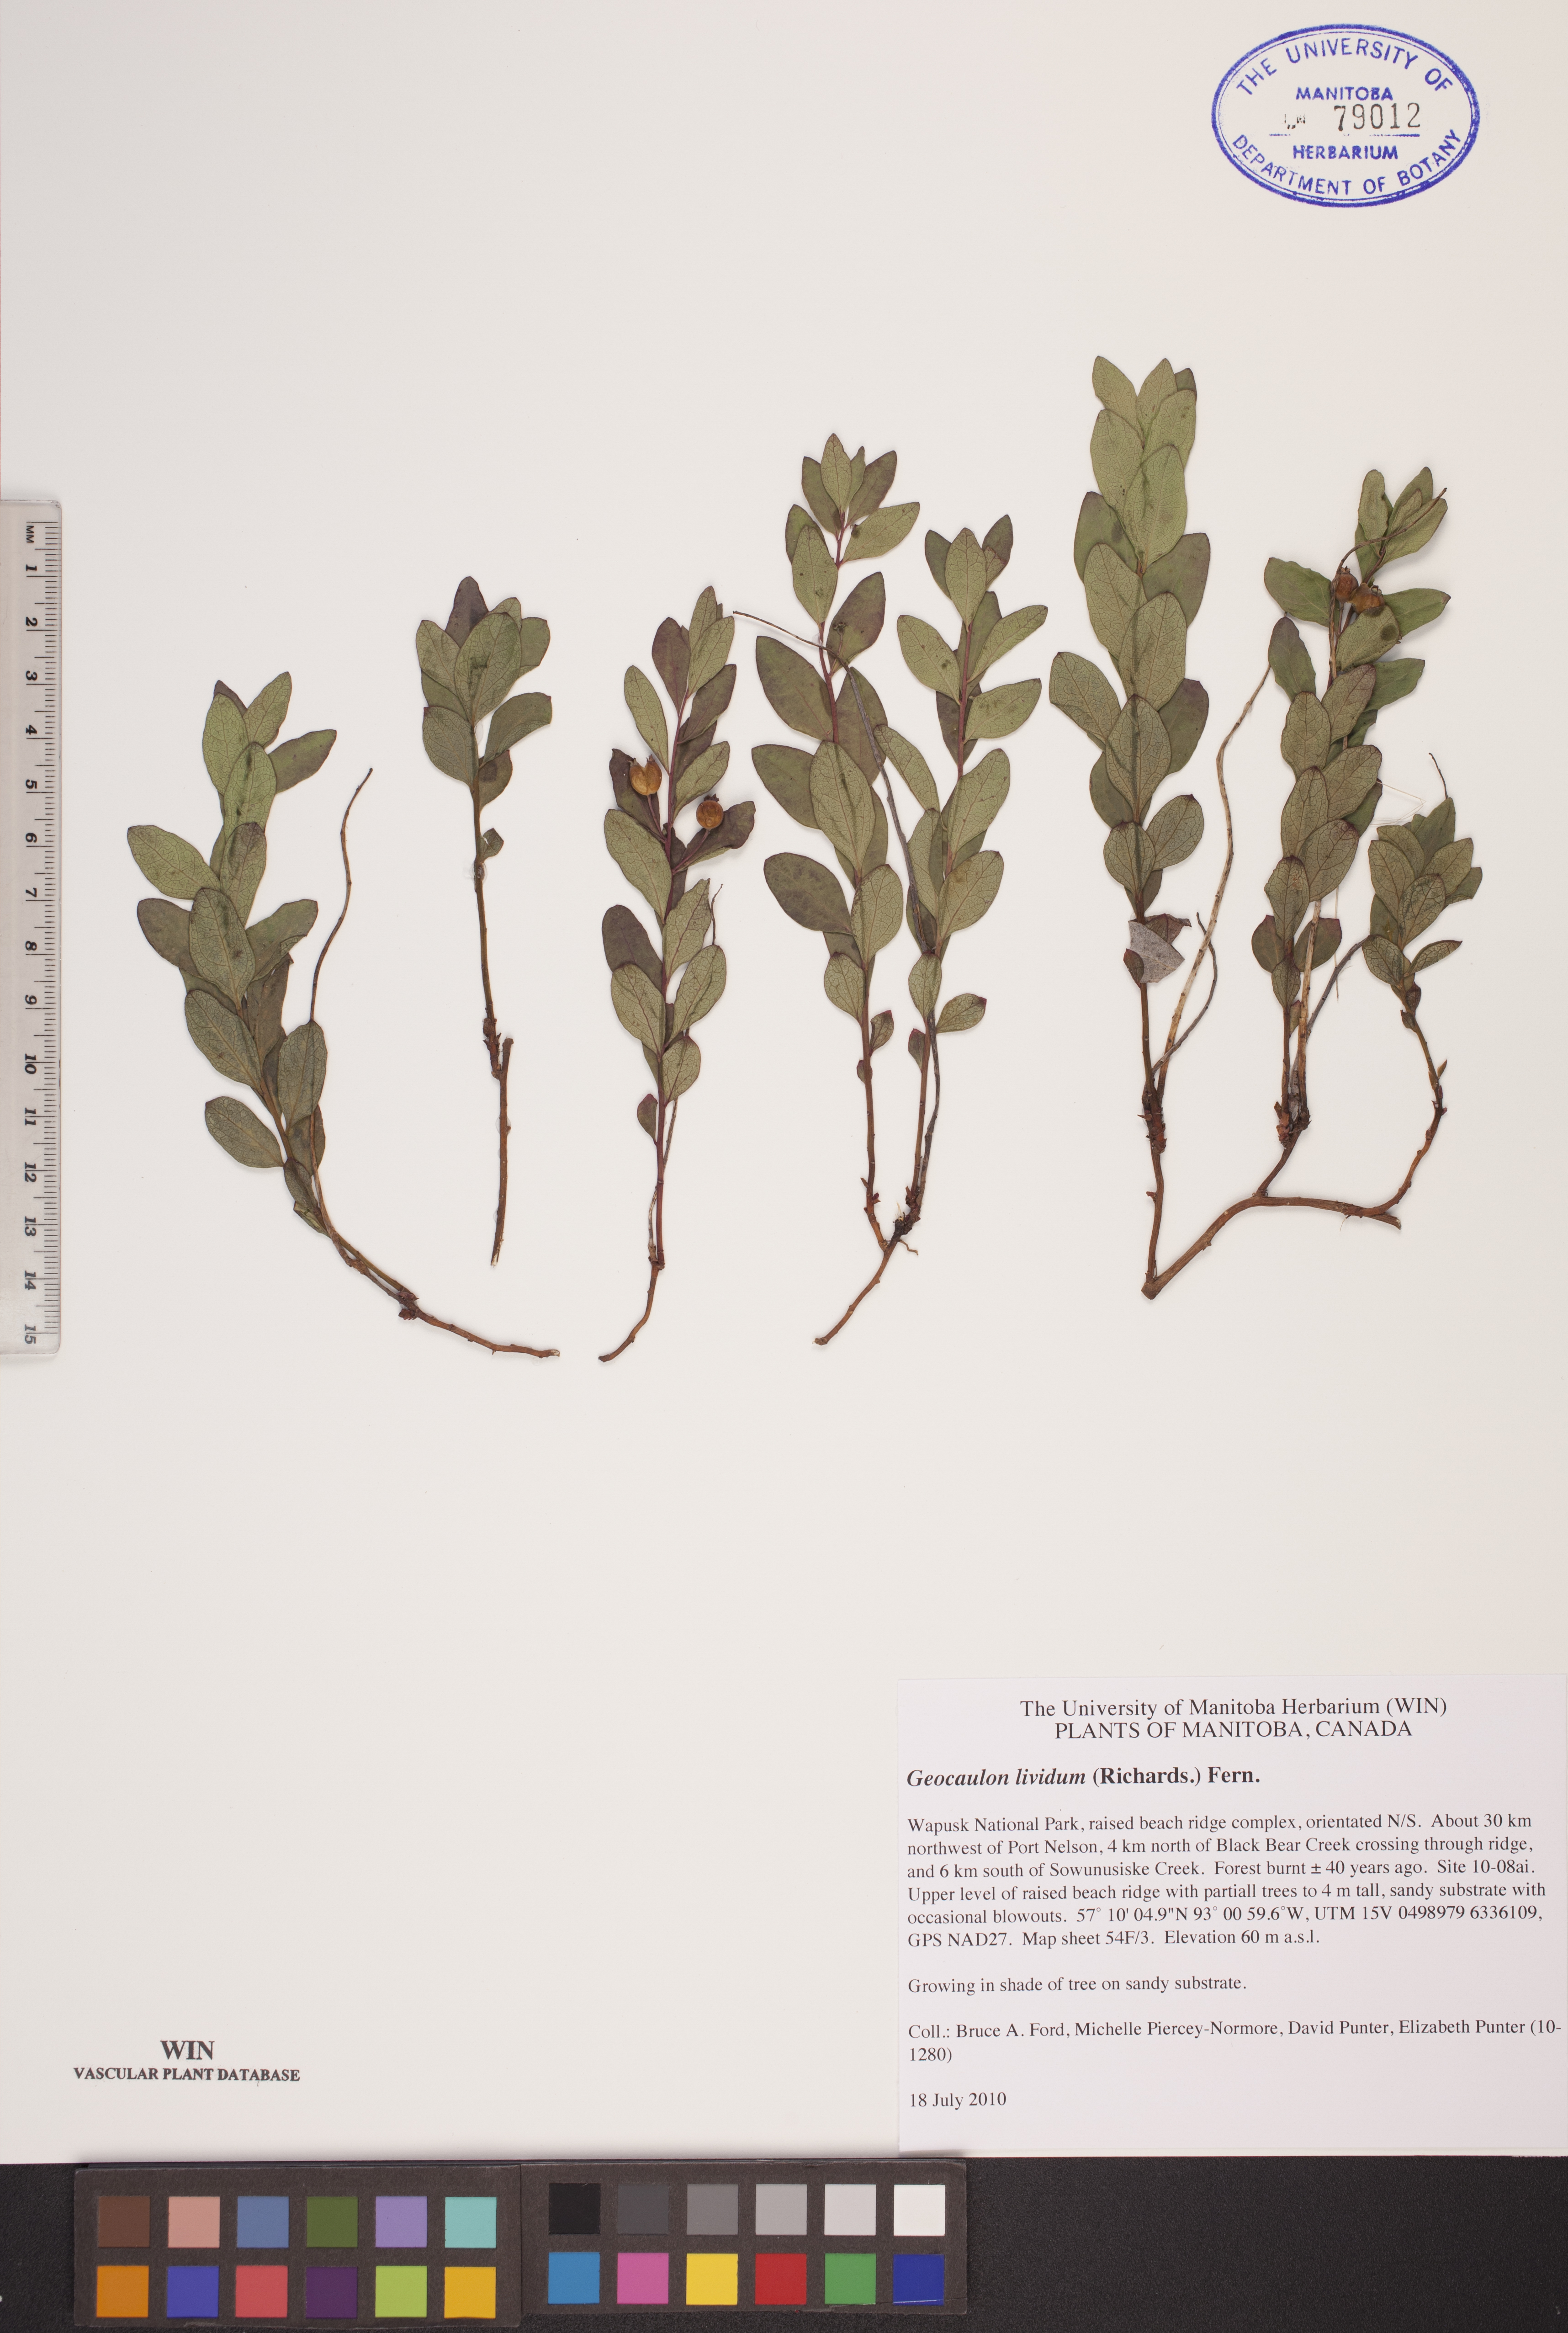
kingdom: Plantae
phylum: Tracheophyta
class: Magnoliopsida
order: Santalales
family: Comandraceae
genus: Geocaulon
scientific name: Geocaulon lividum
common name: Earthberry
